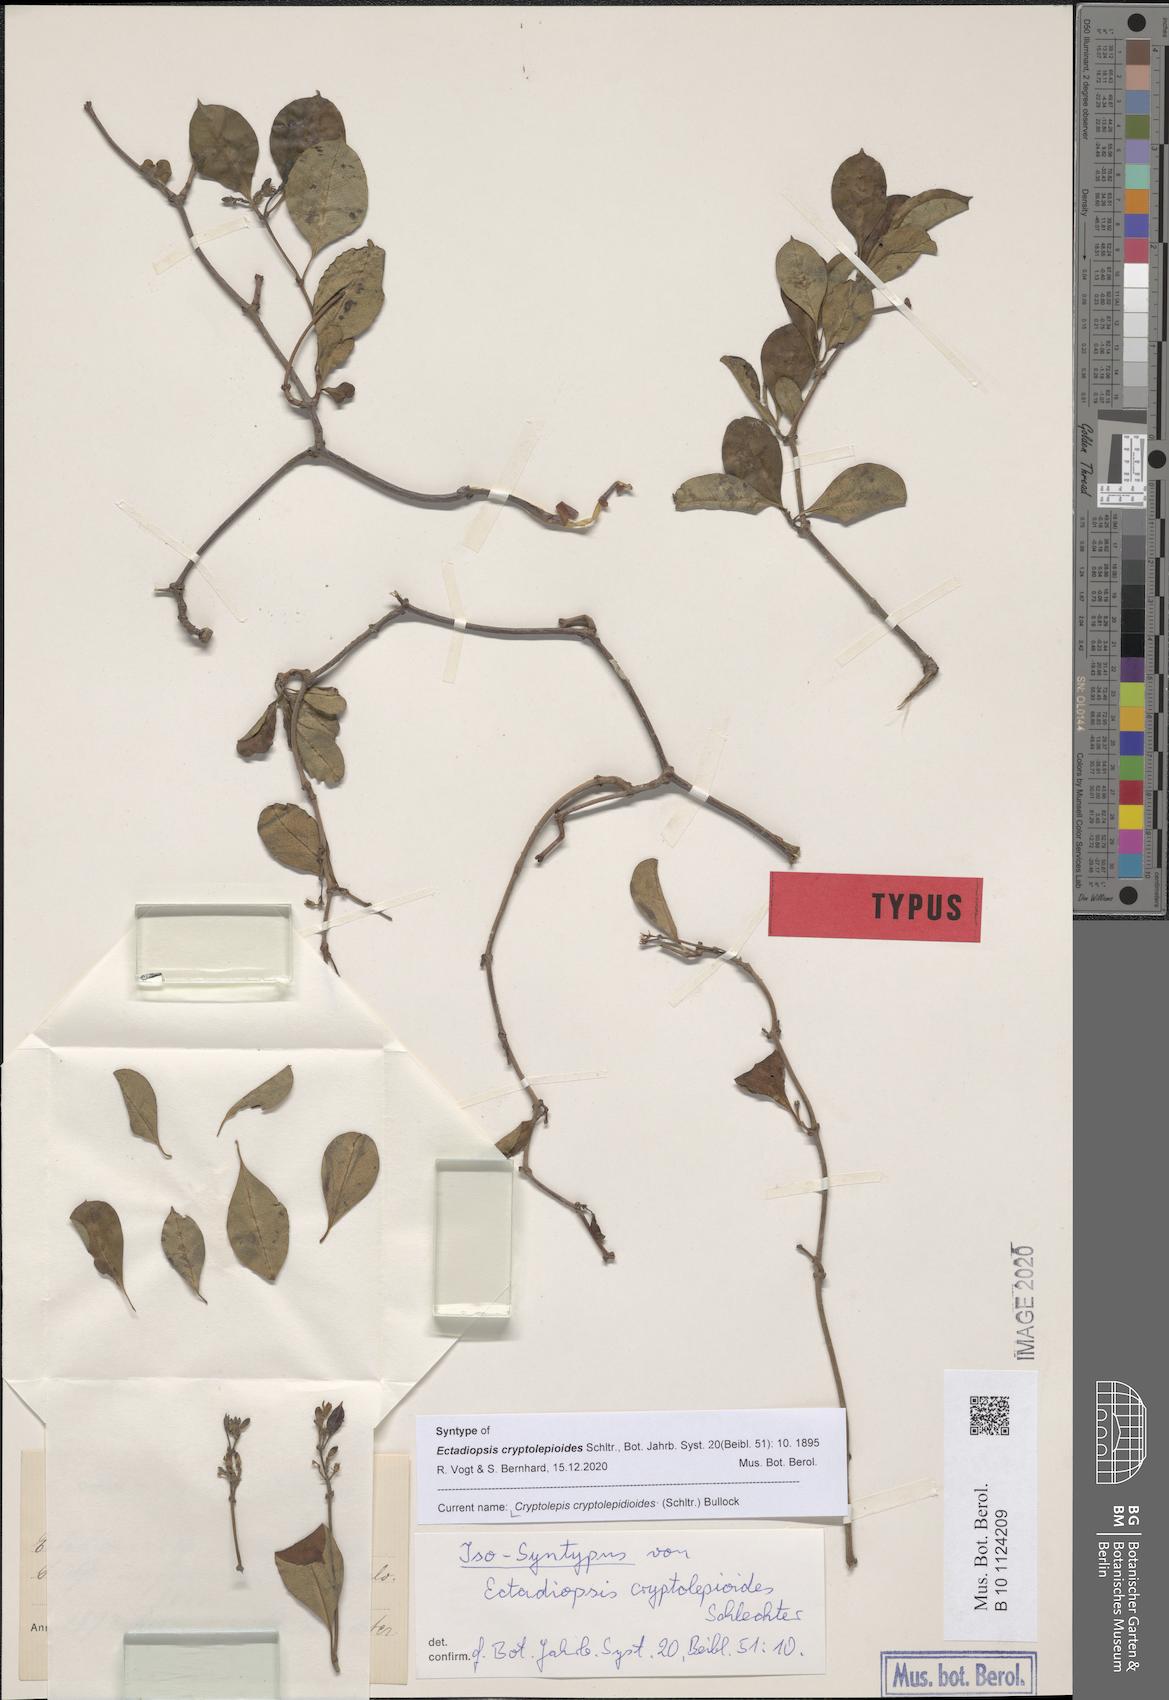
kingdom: Plantae
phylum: Tracheophyta
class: Magnoliopsida
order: Gentianales
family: Apocynaceae
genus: Cryptolepis
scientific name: Cryptolepis cryptolepioides
